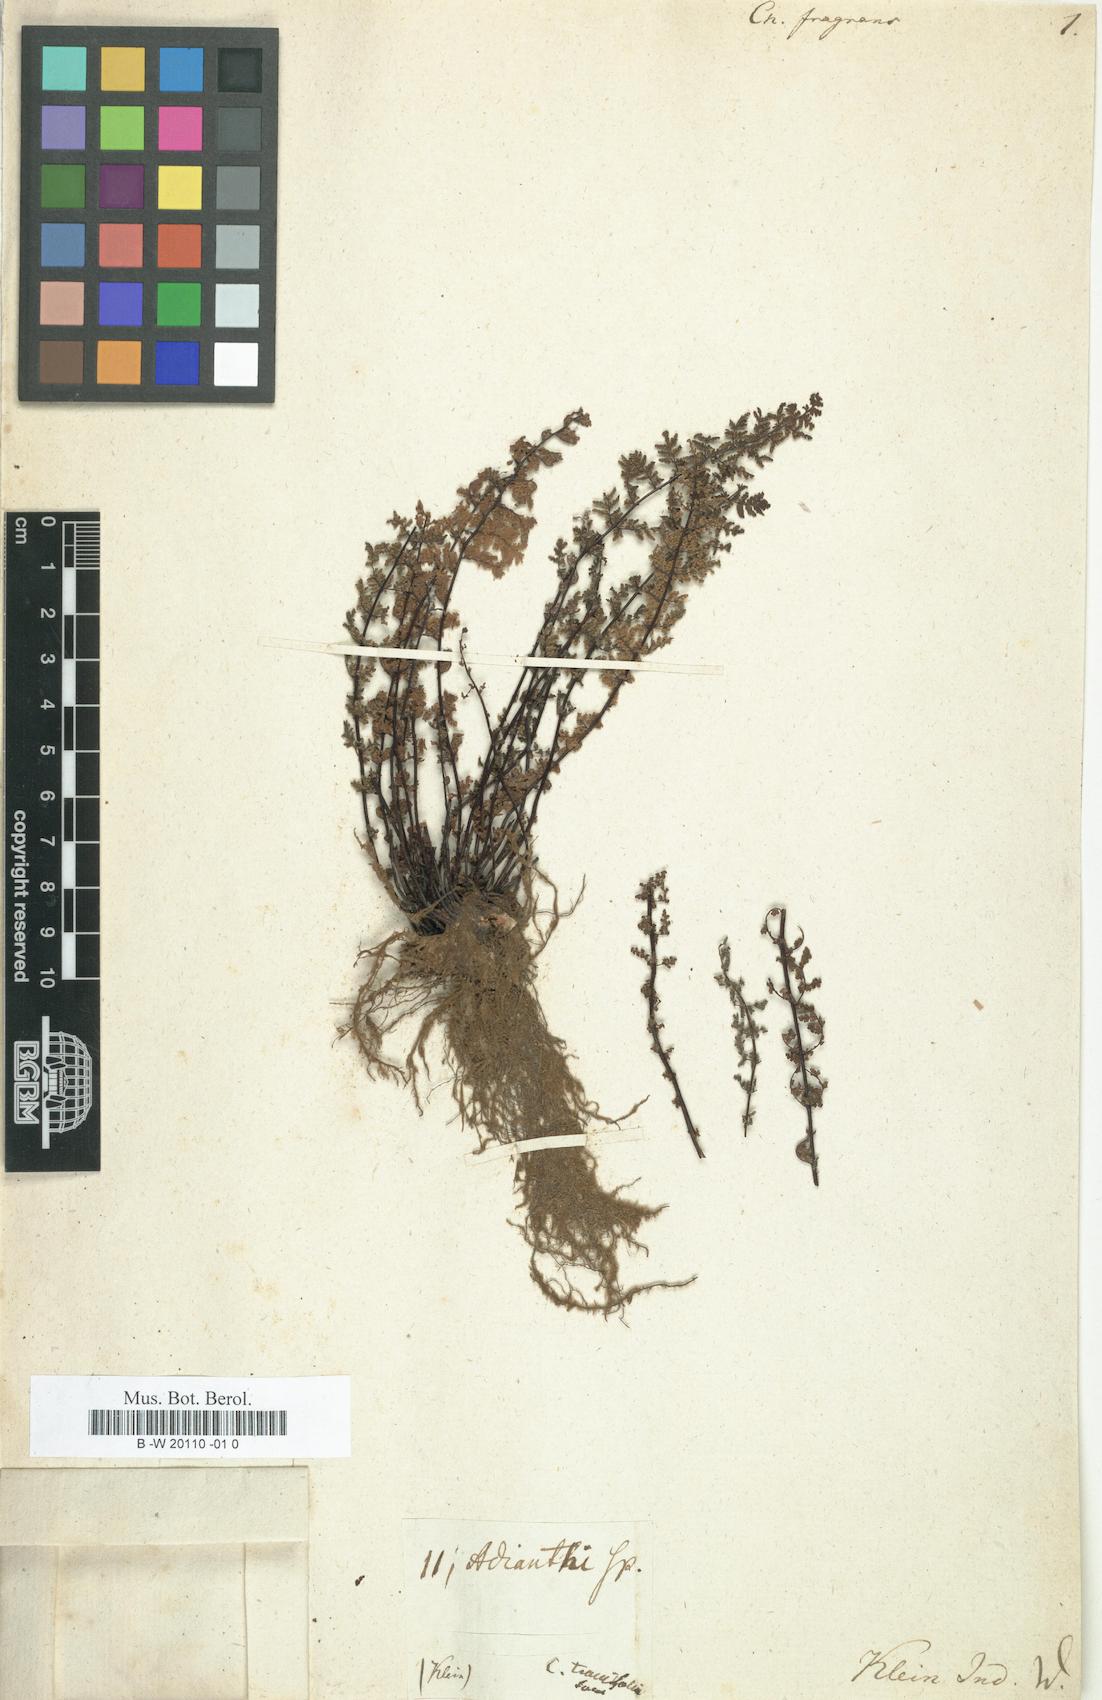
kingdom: Plantae
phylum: Tracheophyta
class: Polypodiopsida
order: Polypodiales
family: Pteridaceae
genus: Oeosporangium
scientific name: Oeosporangium pteridioides
